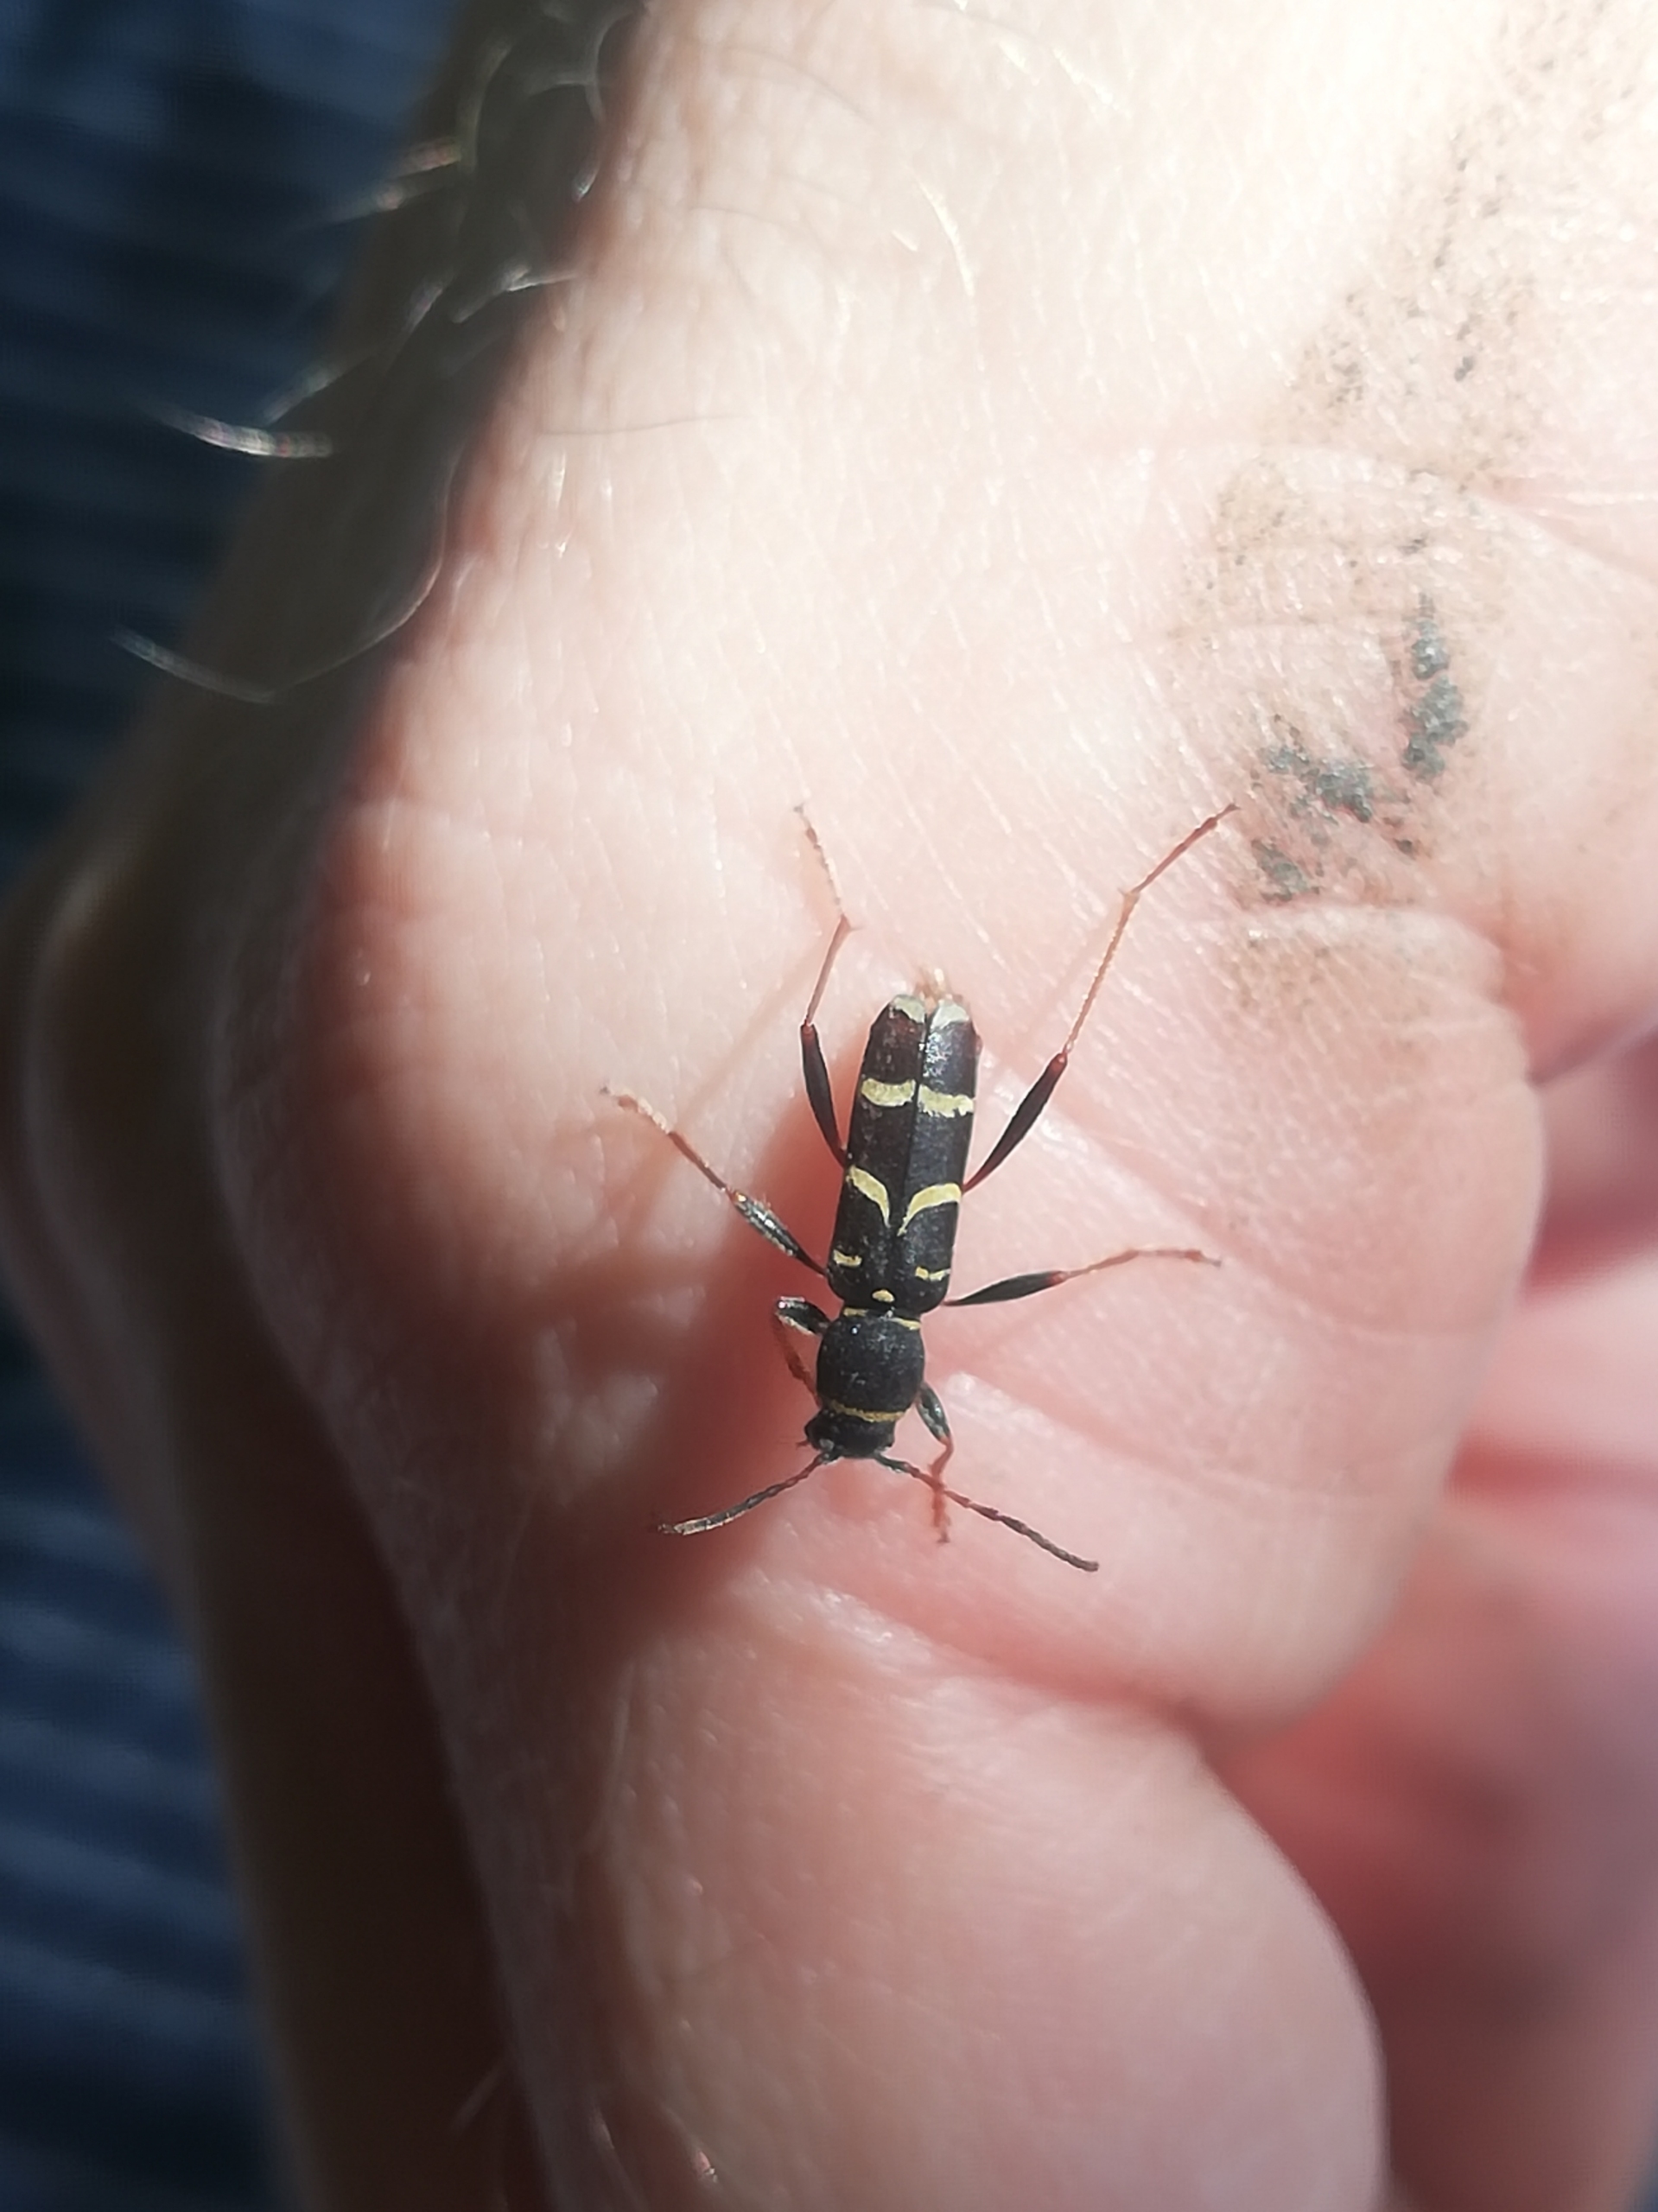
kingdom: Animalia
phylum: Arthropoda
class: Insecta
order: Coleoptera
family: Cerambycidae
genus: Clytus
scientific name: Clytus arietis
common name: Lille hvepsebuk
